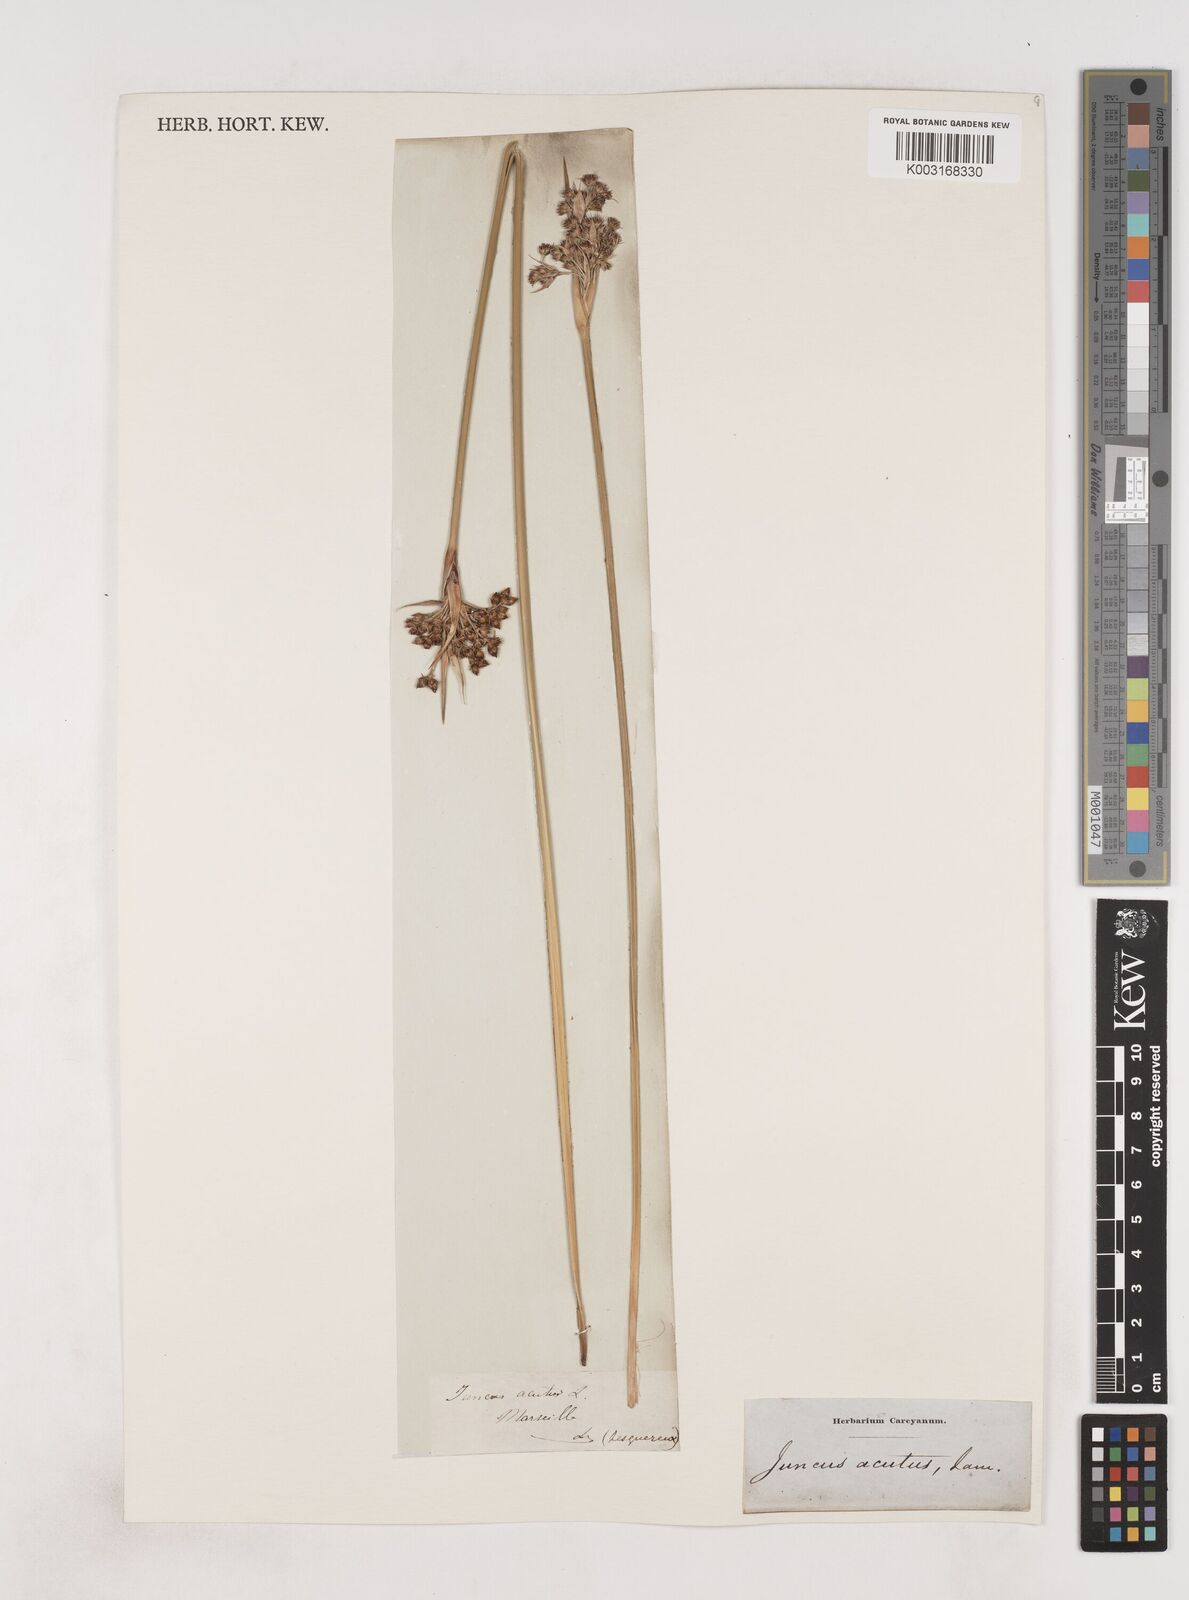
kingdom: Plantae
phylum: Tracheophyta
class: Liliopsida
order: Poales
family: Juncaceae
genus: Juncus
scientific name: Juncus acutus
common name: Sharp rush
